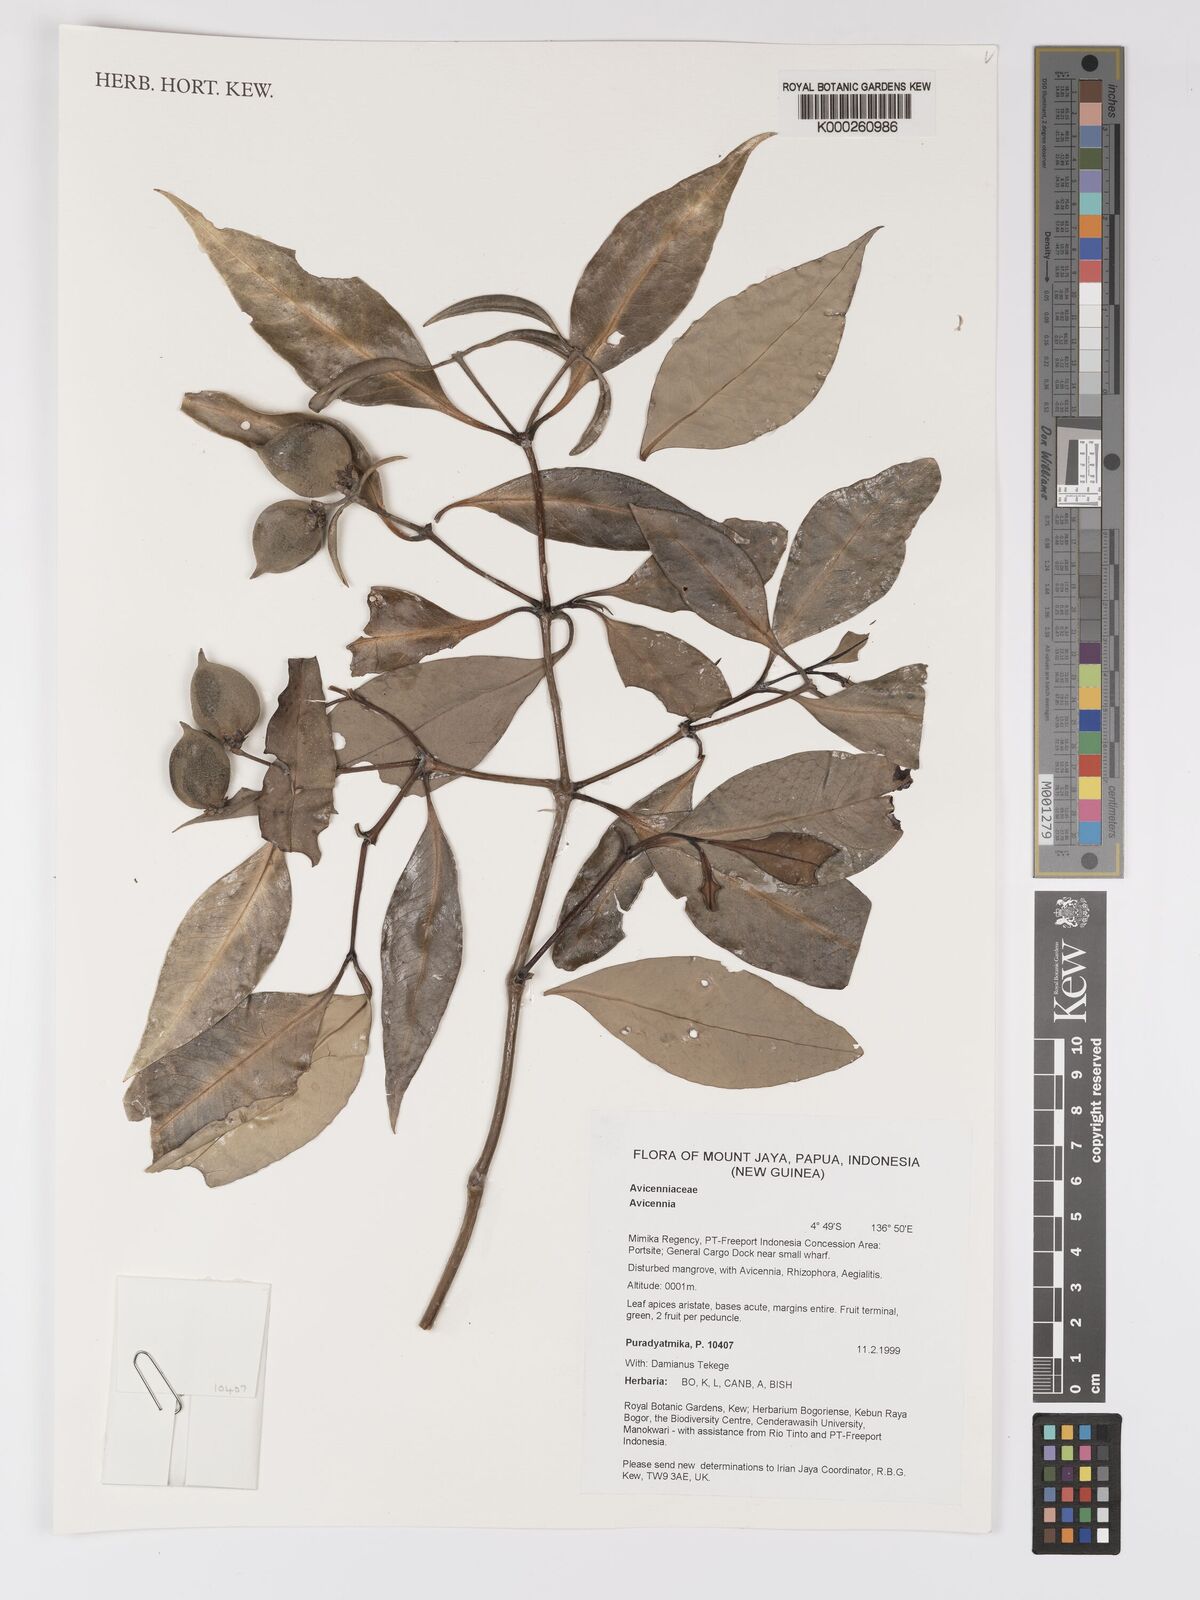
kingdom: Plantae
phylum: Tracheophyta
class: Magnoliopsida
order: Lamiales
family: Acanthaceae
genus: Avicennia
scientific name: Avicennia
